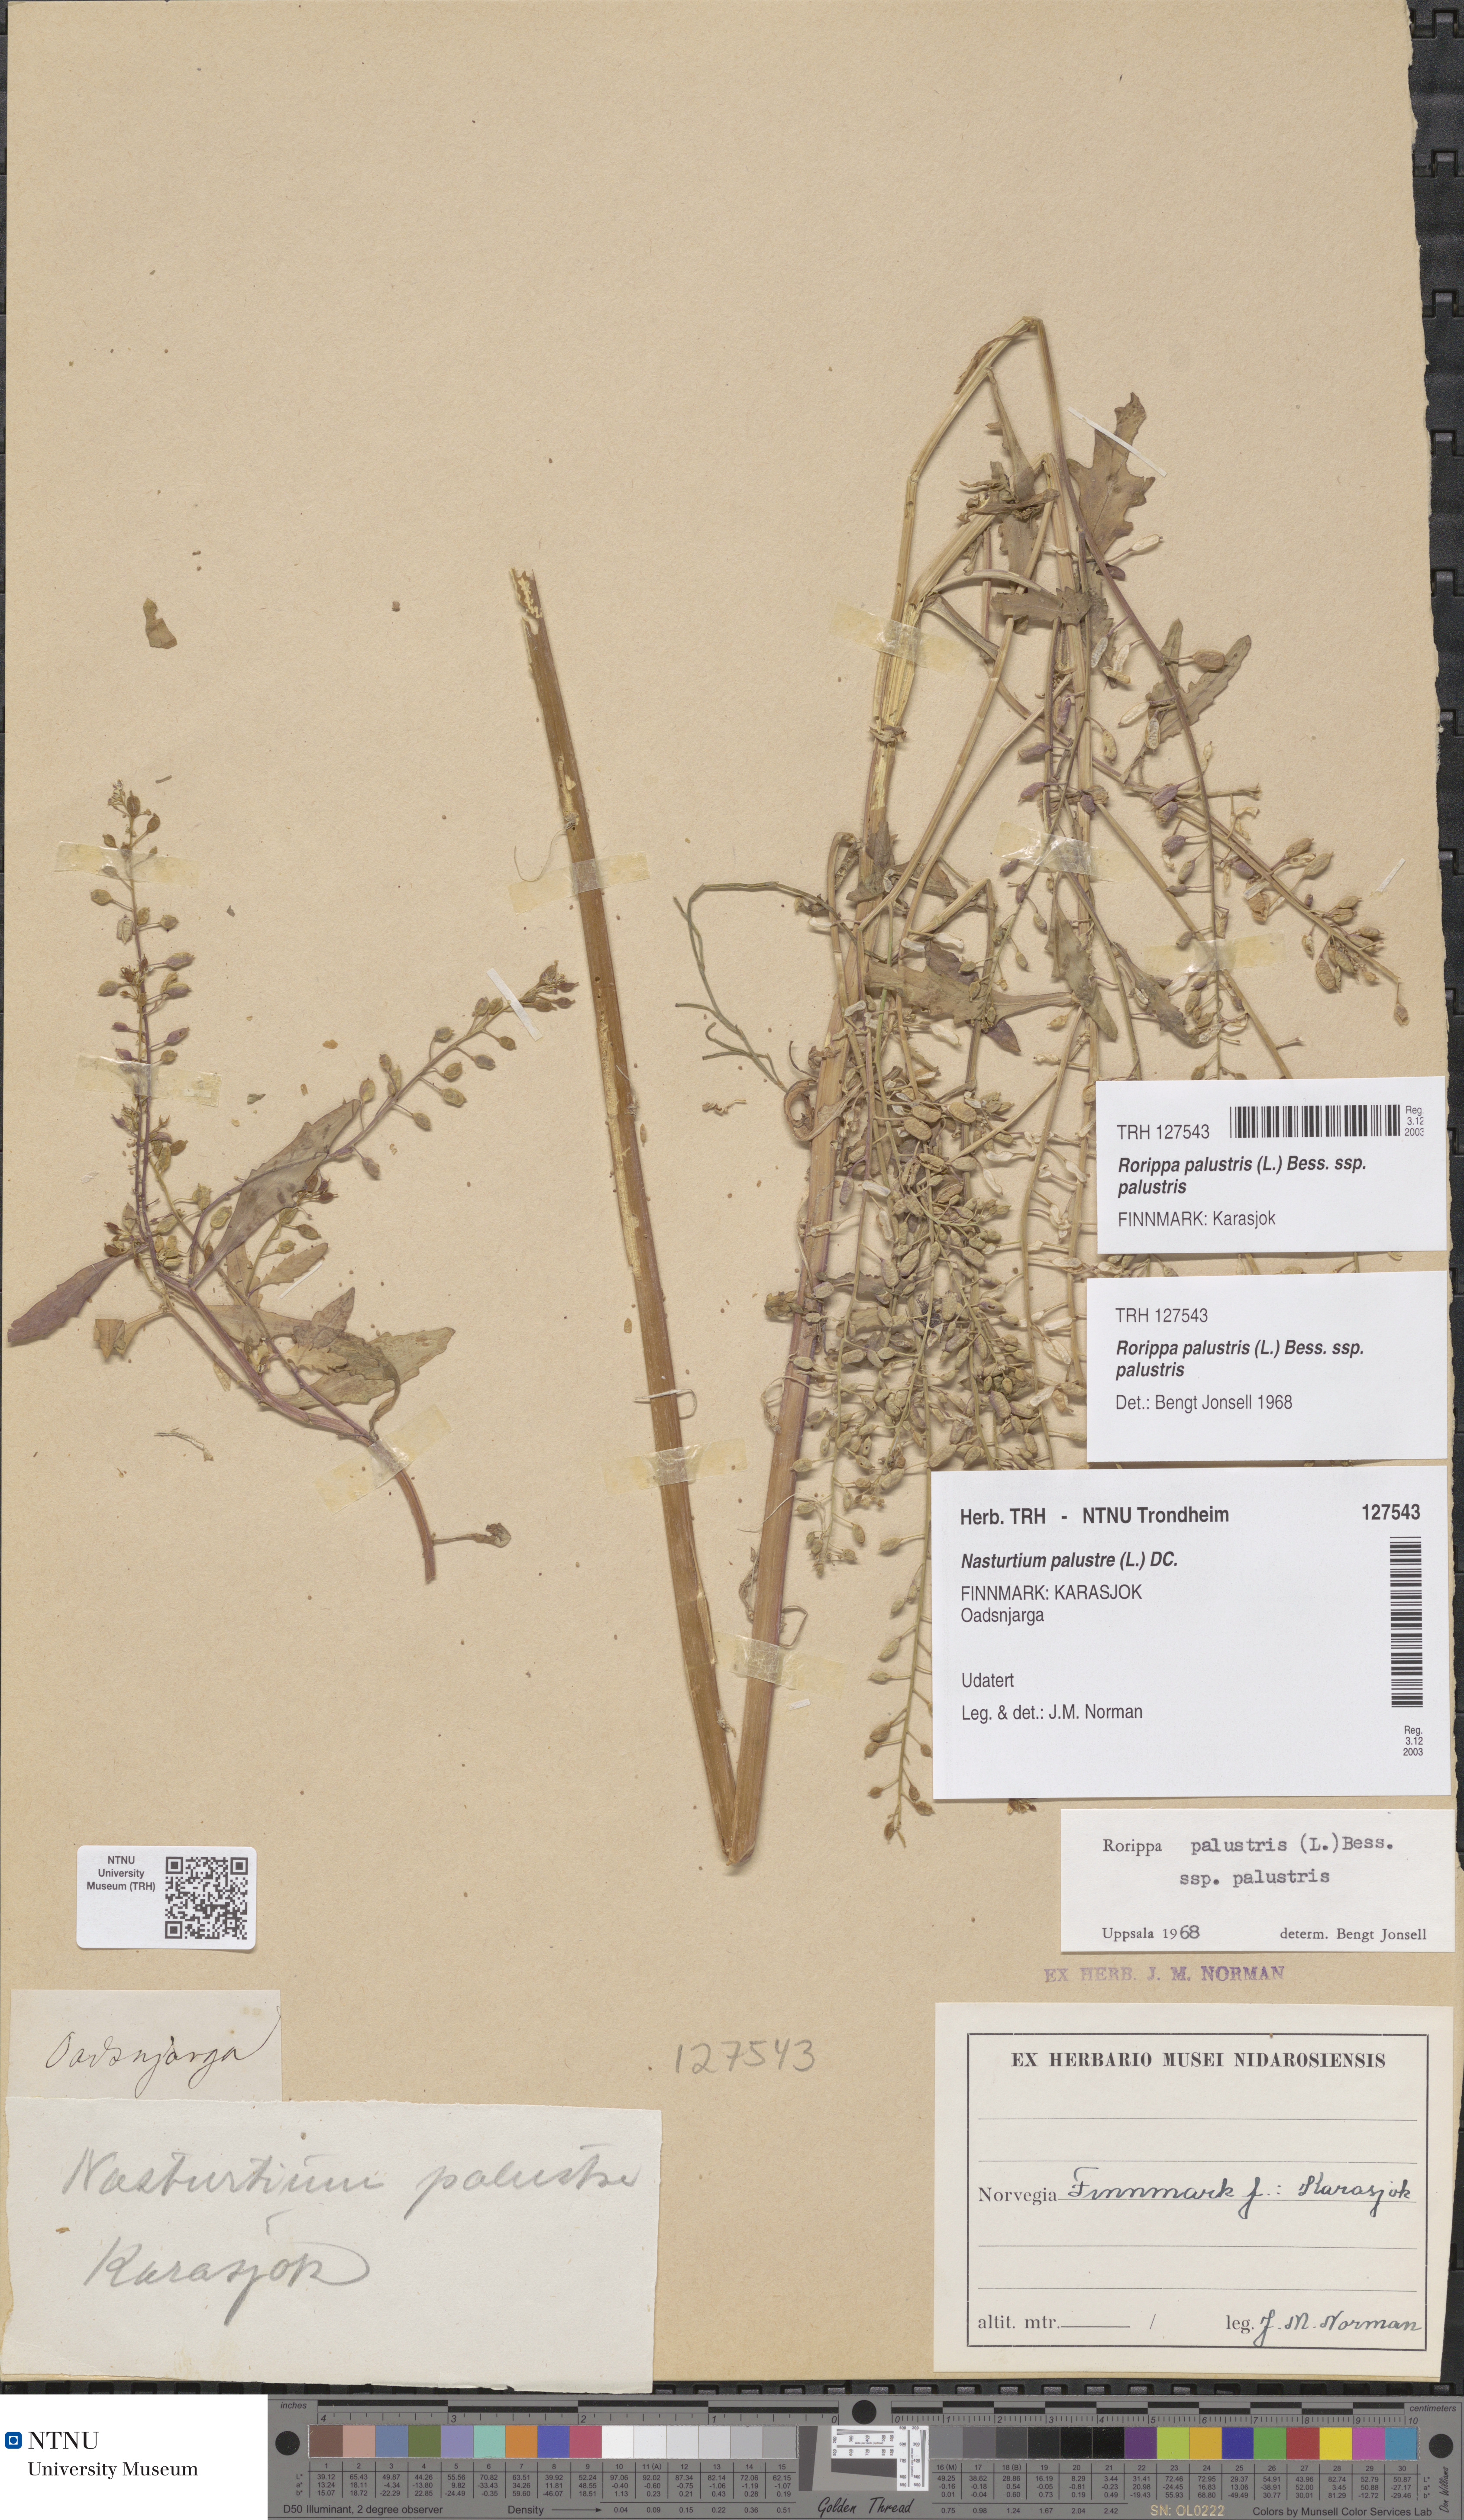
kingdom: Plantae
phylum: Tracheophyta
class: Magnoliopsida
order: Brassicales
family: Brassicaceae
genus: Rorippa
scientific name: Rorippa palustris
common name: Marsh yellow-cress
